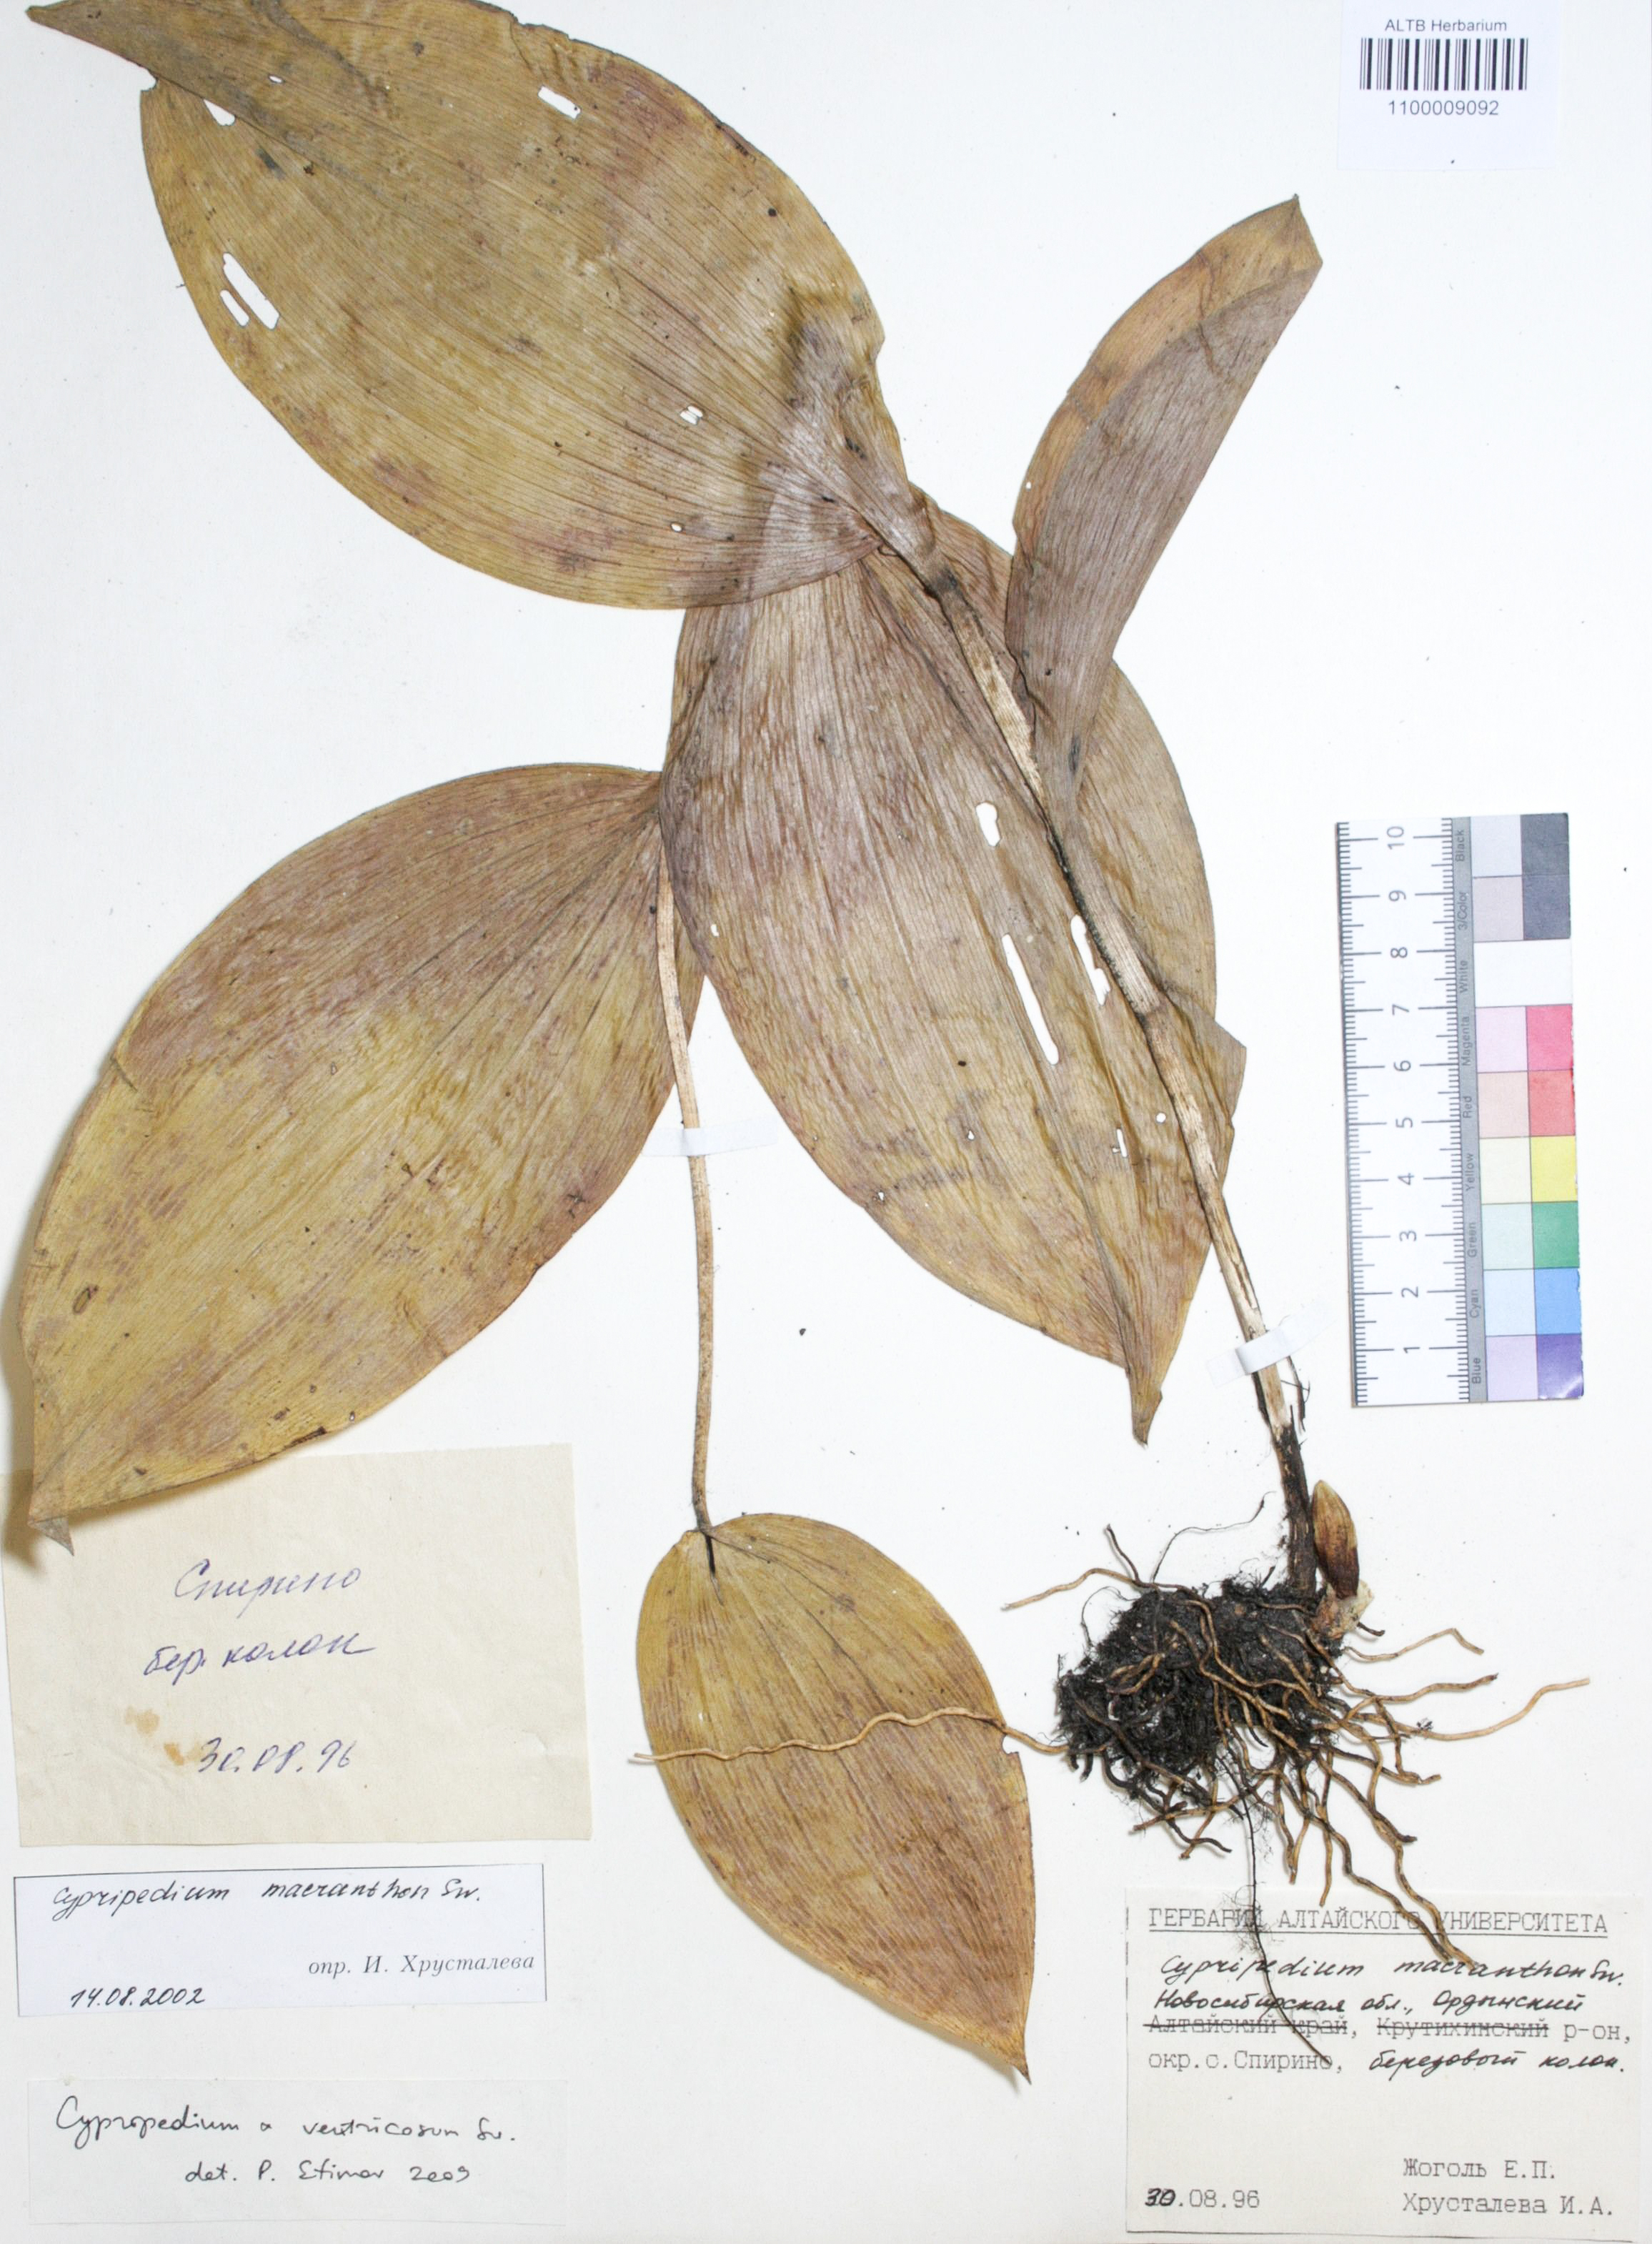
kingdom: Plantae
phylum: Tracheophyta
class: Liliopsida
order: Asparagales
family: Orchidaceae
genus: Cypripedium
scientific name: Cypripedium guttatum
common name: Pink lady slipper
